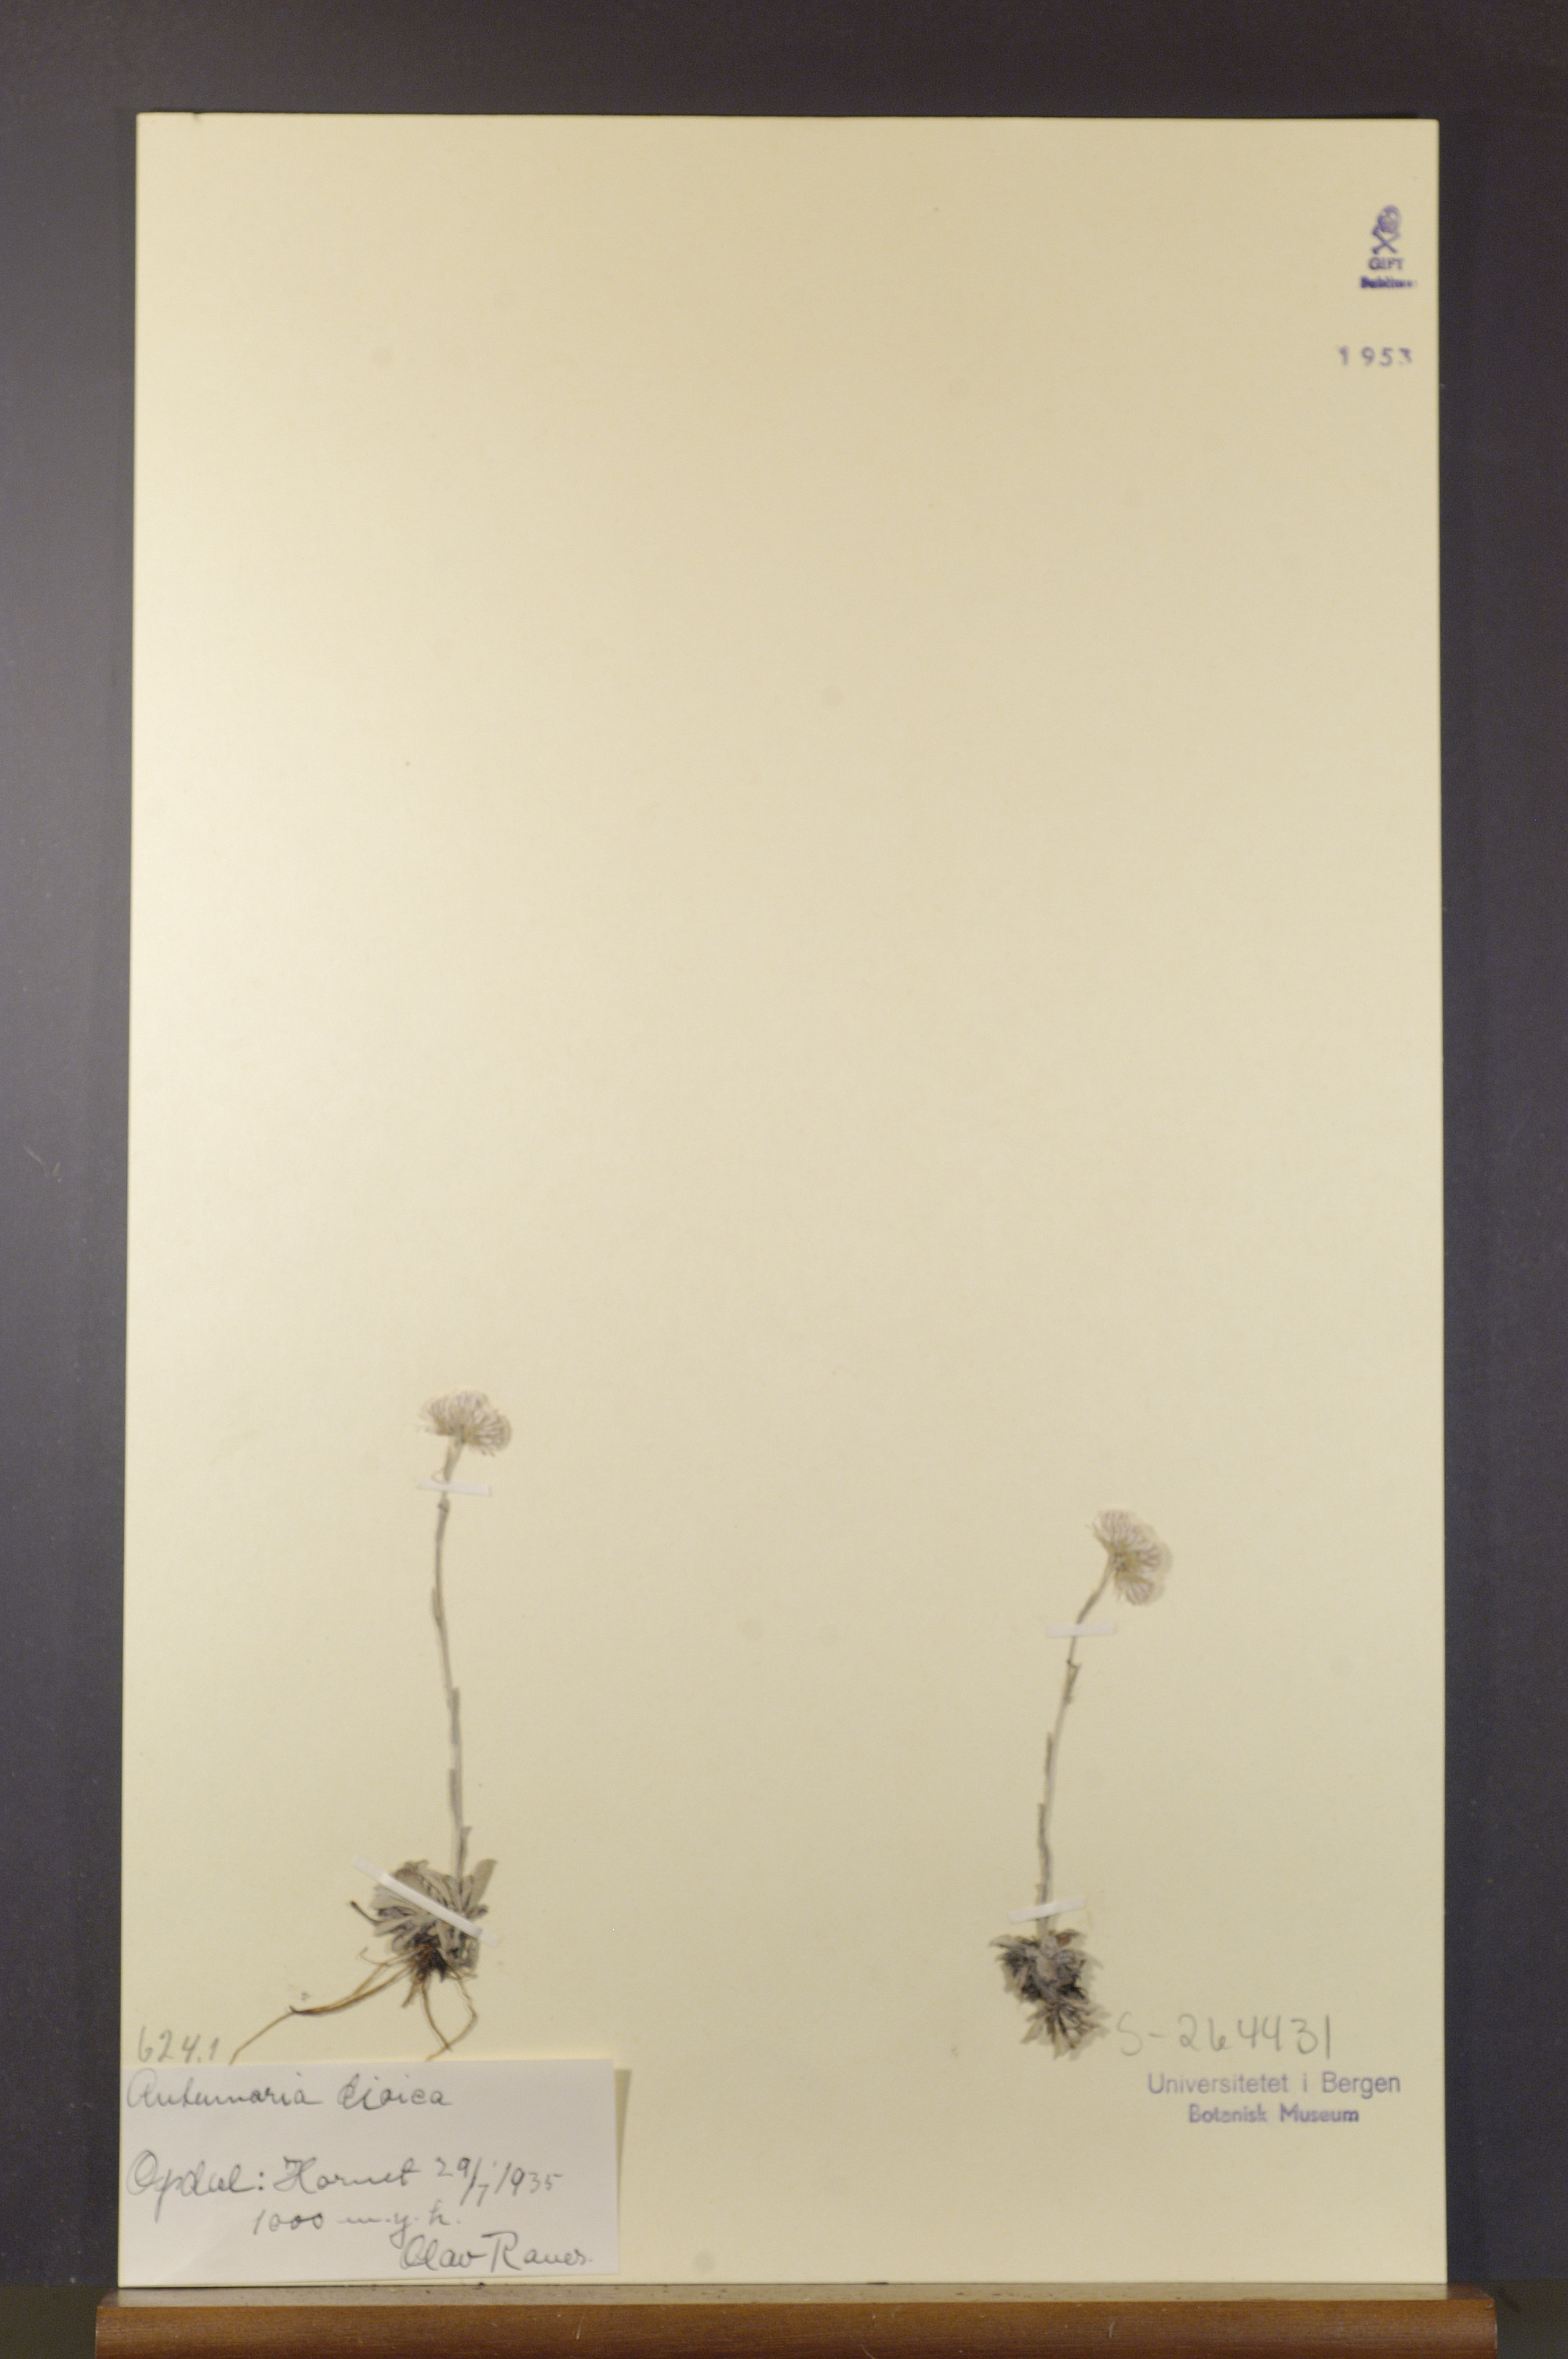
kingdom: Plantae
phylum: Tracheophyta
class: Magnoliopsida
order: Asterales
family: Asteraceae
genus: Antennaria
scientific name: Antennaria dioica
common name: Mountain everlasting
